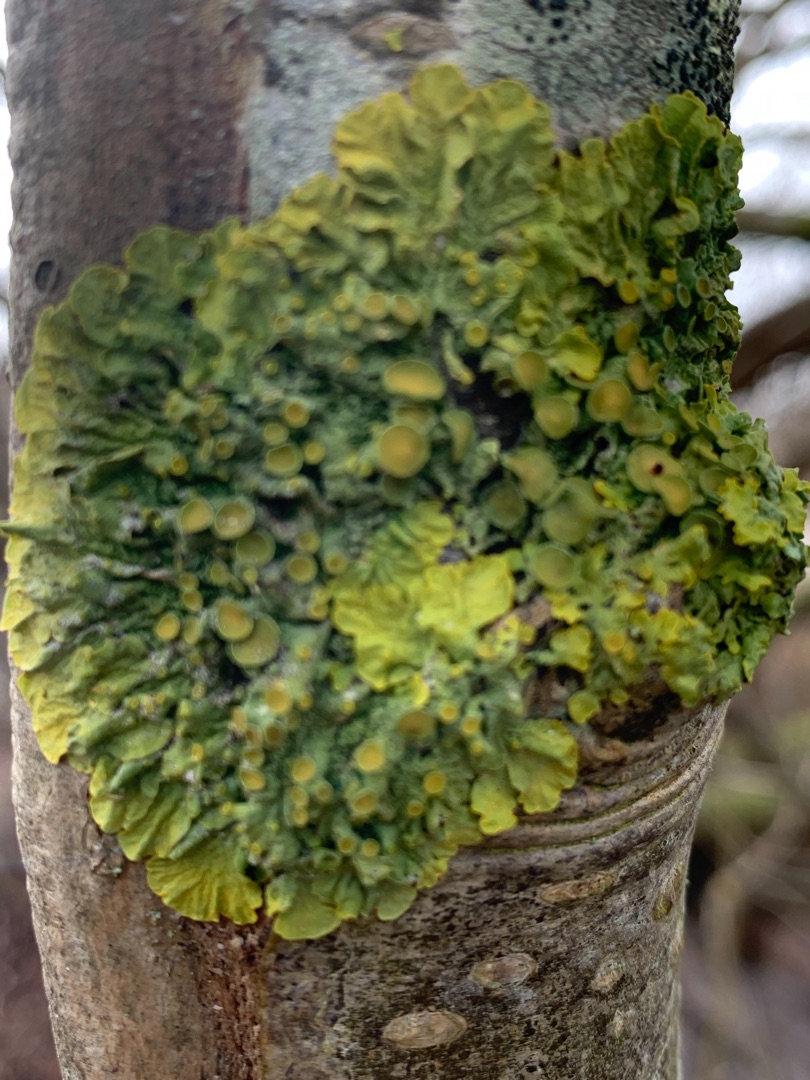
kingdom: Fungi
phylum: Ascomycota
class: Lecanoromycetes
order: Teloschistales
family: Teloschistaceae
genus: Xanthoria
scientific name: Xanthoria parietina
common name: Almindelig væggelav
